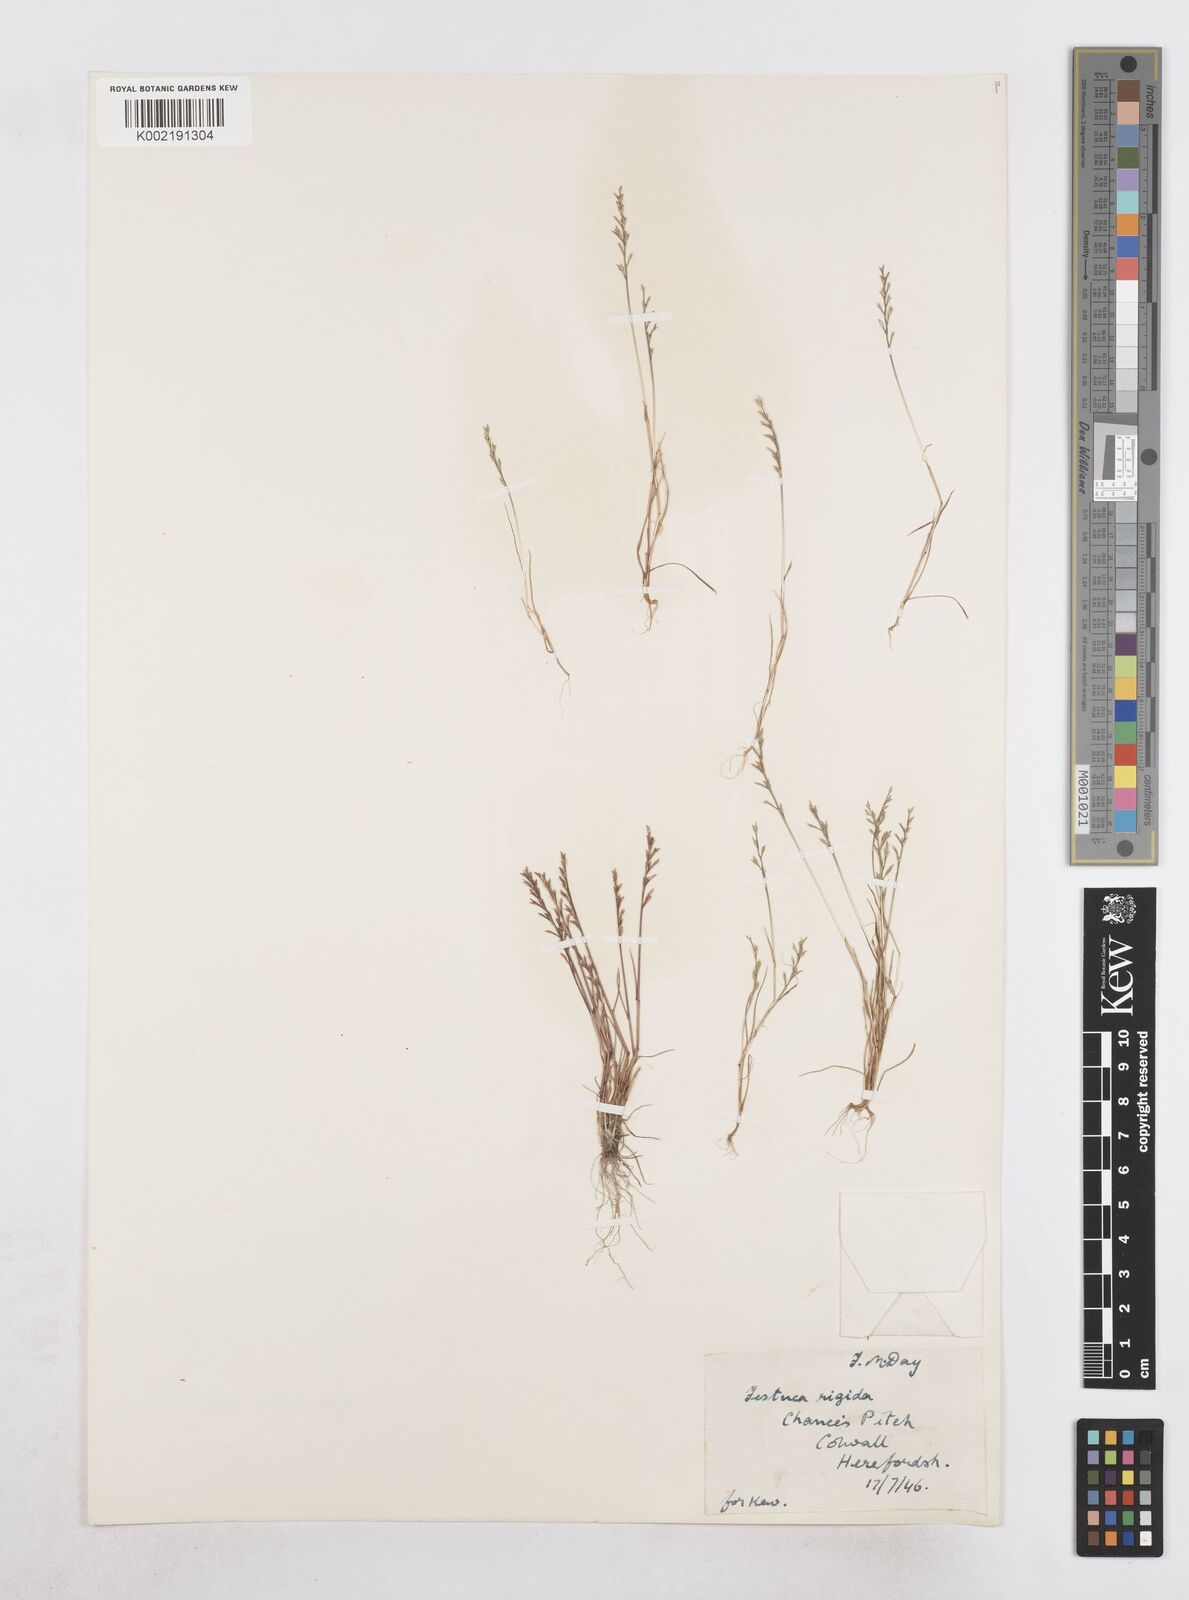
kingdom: Plantae
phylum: Tracheophyta
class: Liliopsida
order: Poales
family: Poaceae
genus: Catapodium
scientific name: Catapodium rigidum
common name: Fern-grass
